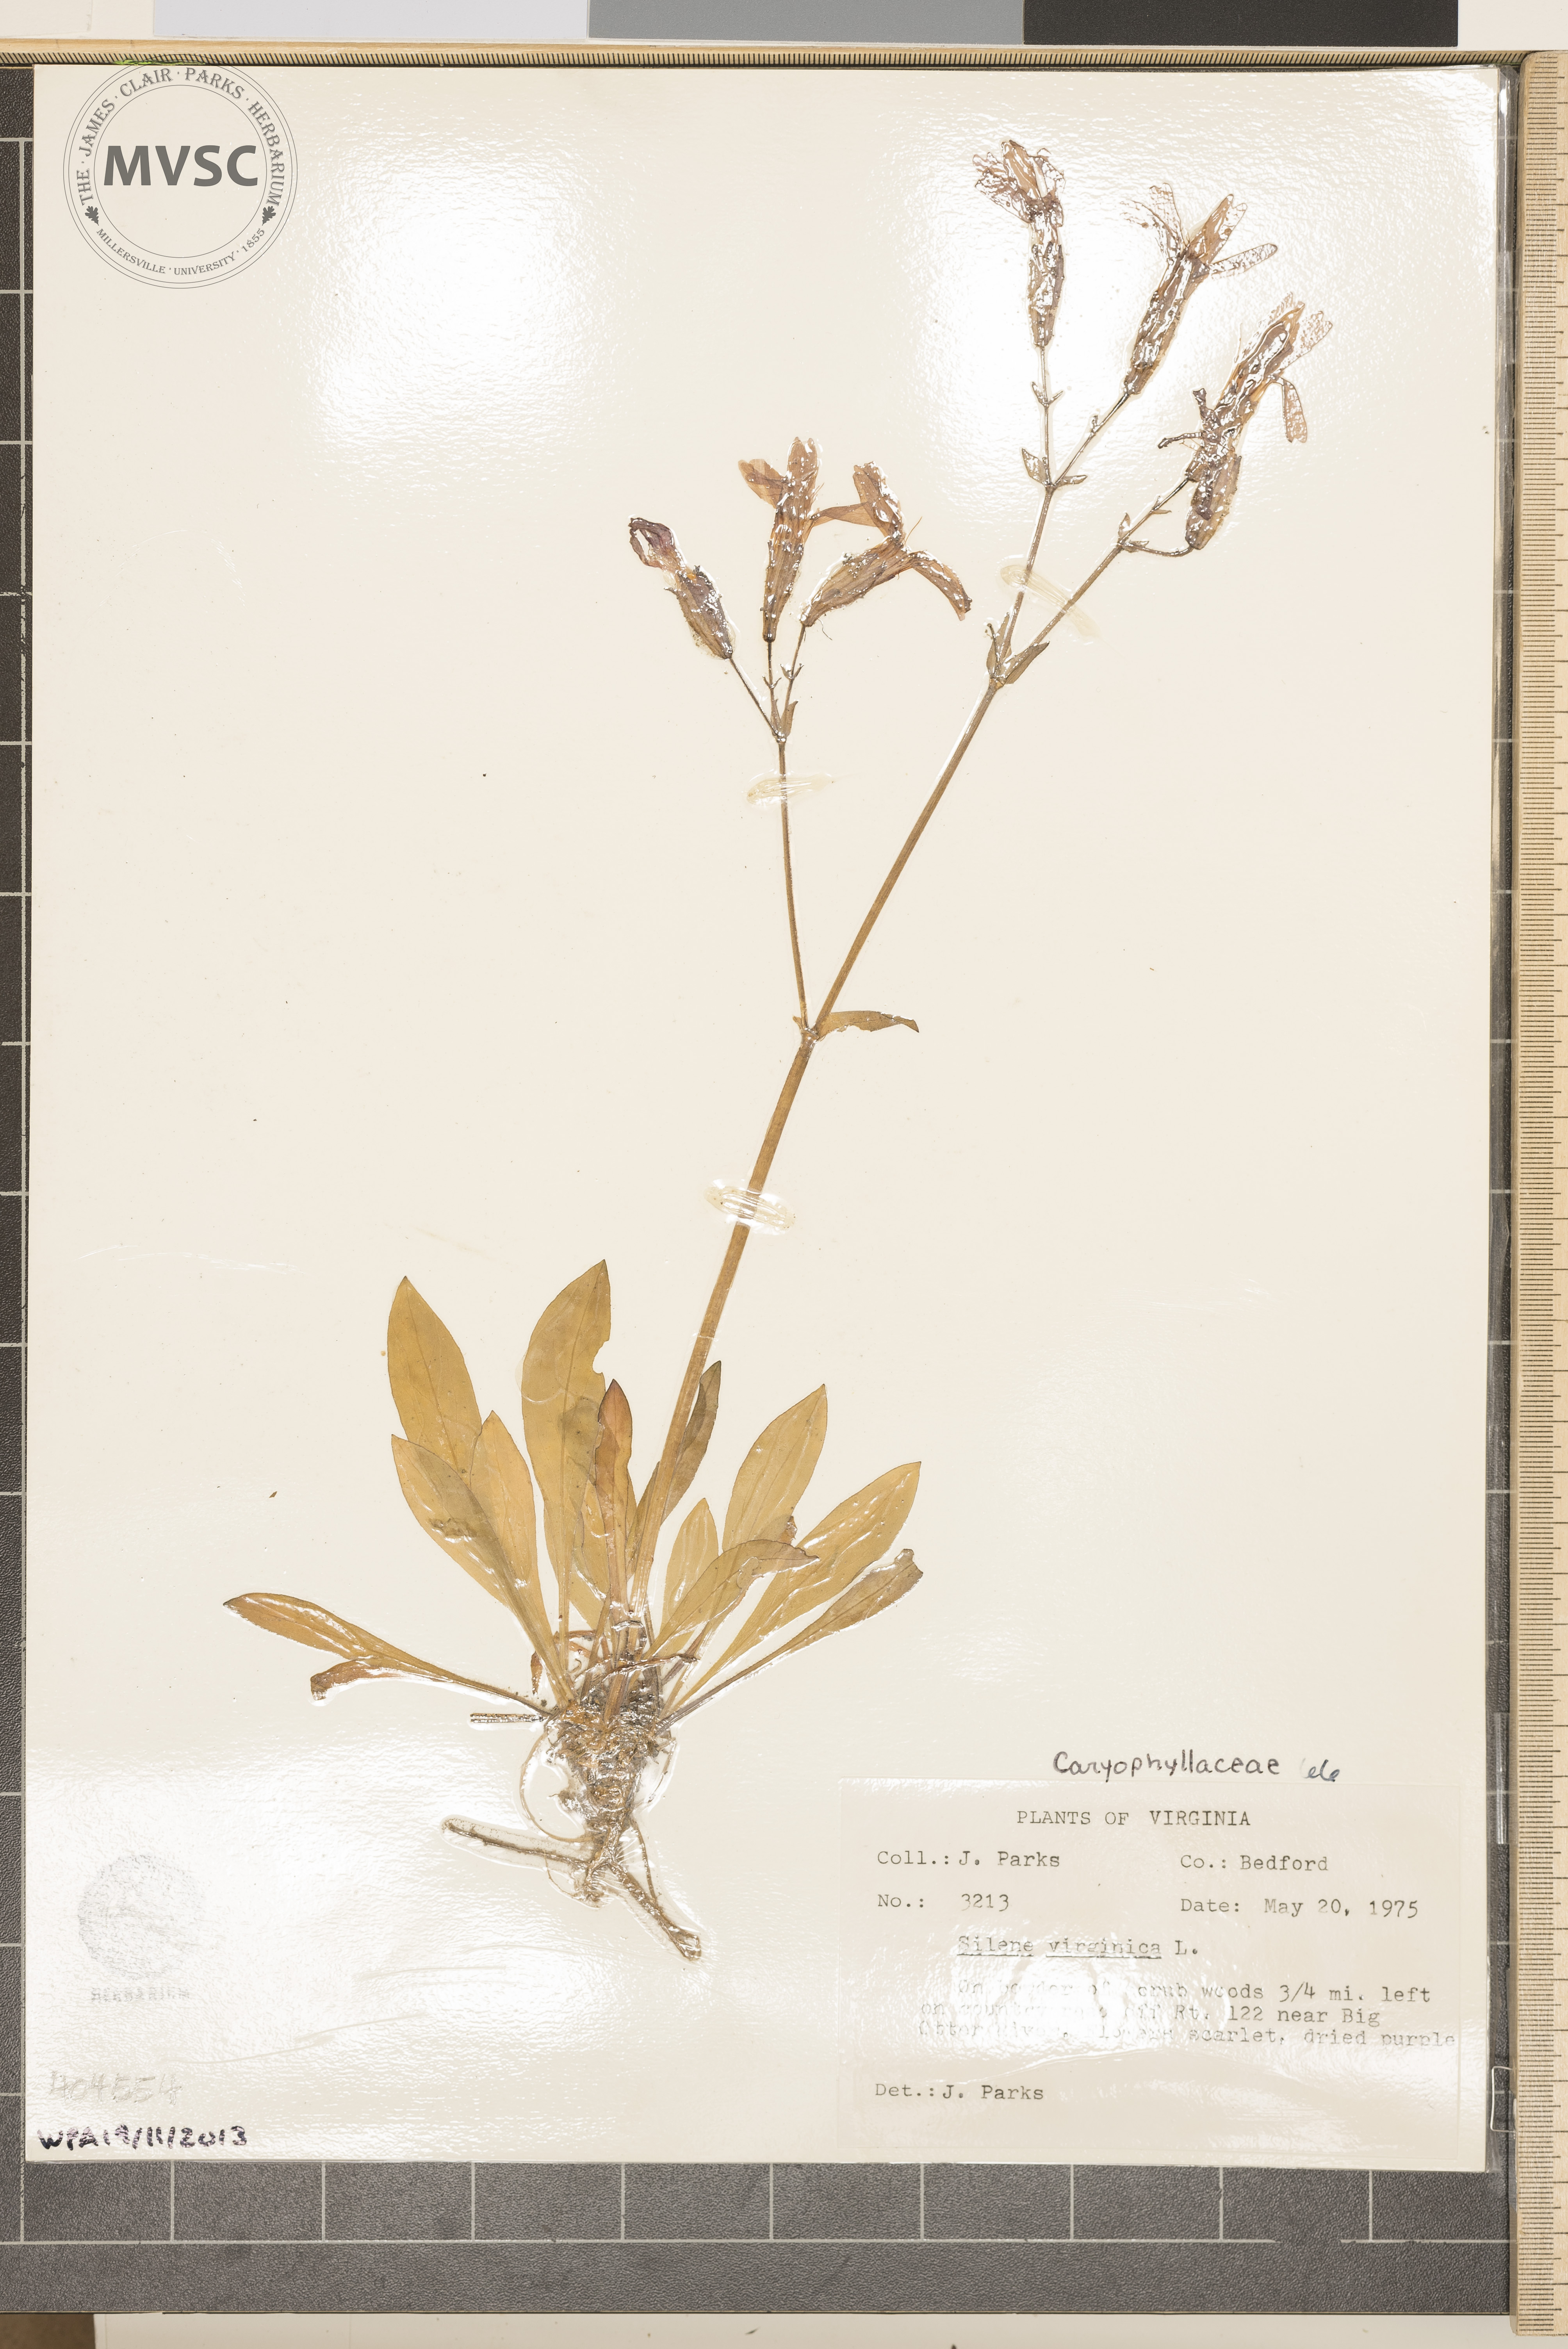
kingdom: Plantae
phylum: Tracheophyta
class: Magnoliopsida
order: Caryophyllales
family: Caryophyllaceae
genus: Silene
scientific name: Silene virginica
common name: Fire-pink
